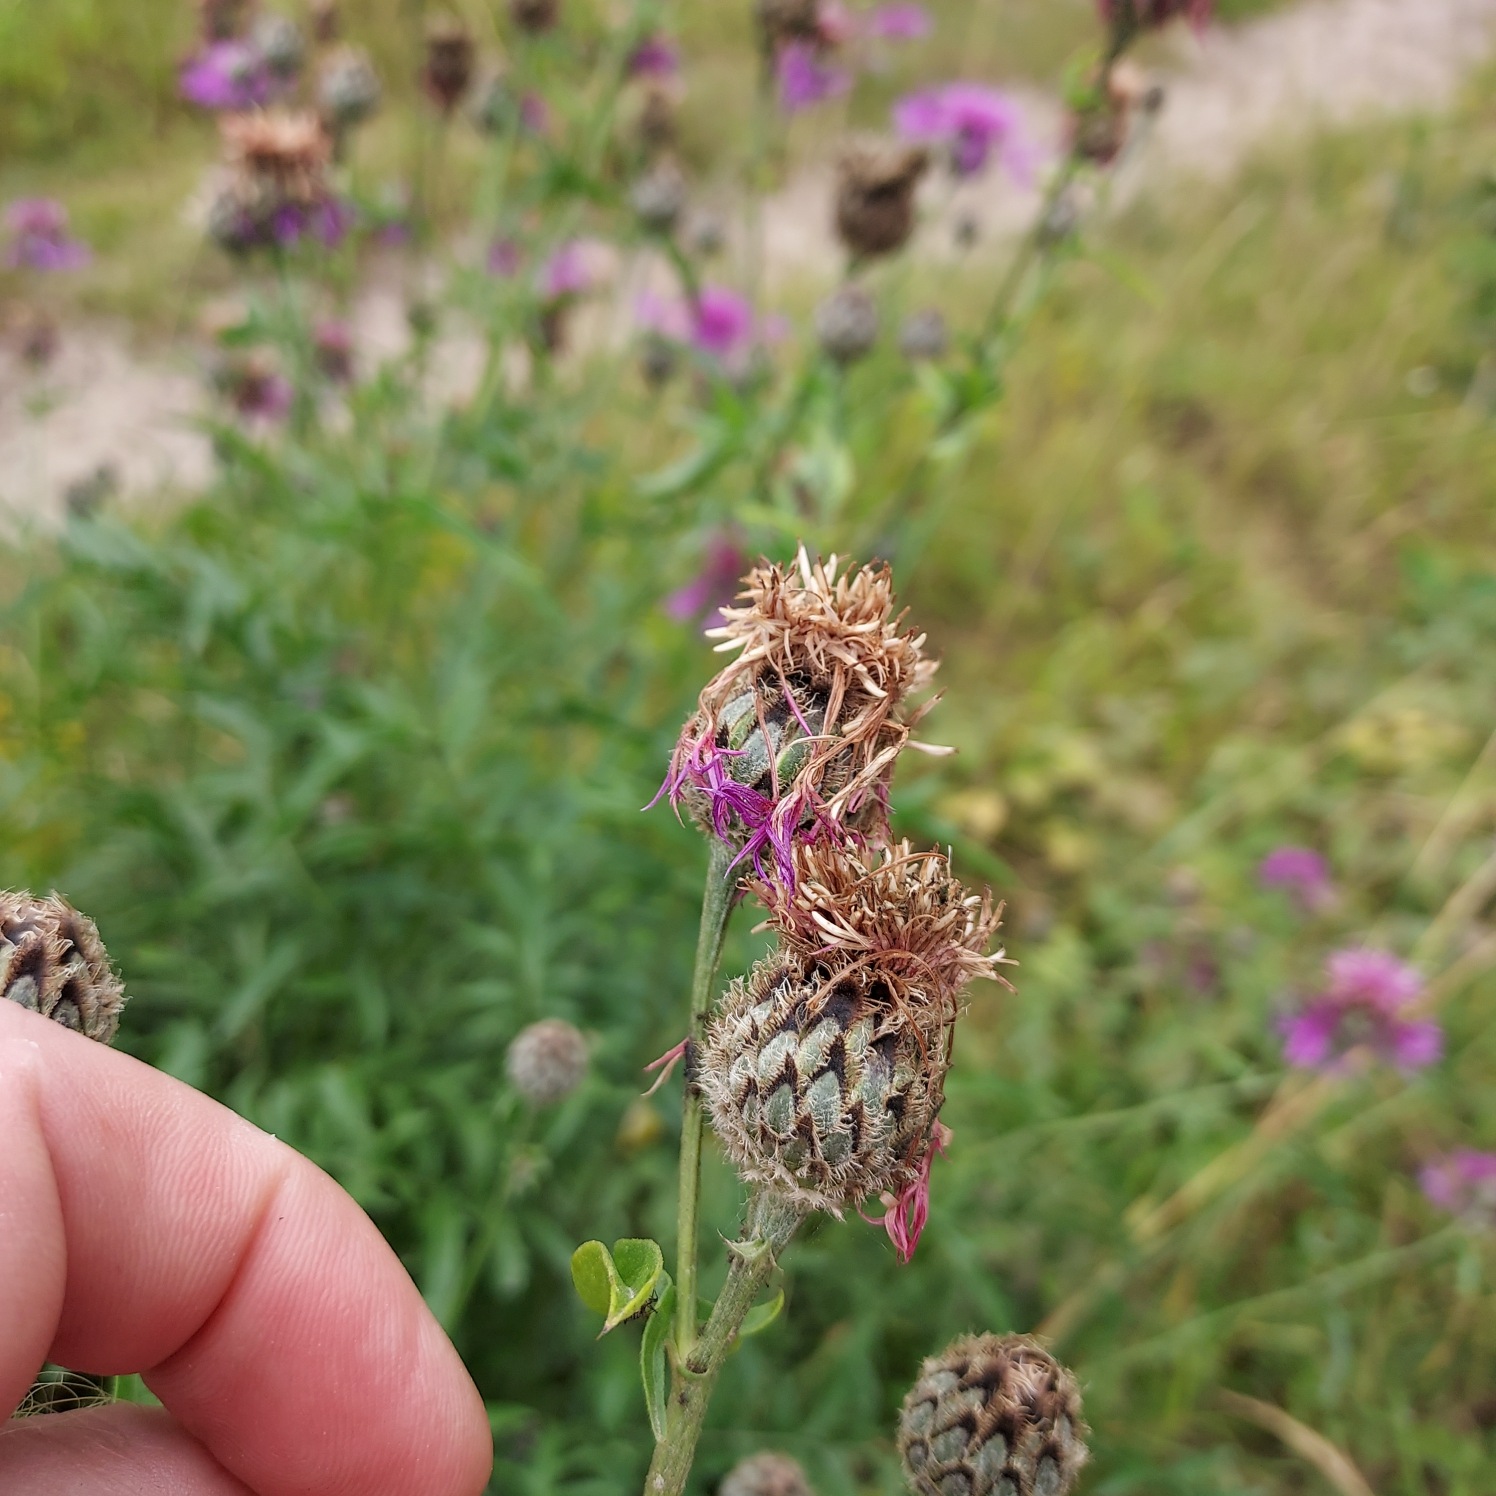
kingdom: Plantae
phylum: Tracheophyta
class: Magnoliopsida
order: Asterales
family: Asteraceae
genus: Centaurea
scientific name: Centaurea scabiosa
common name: Stor knopurt
